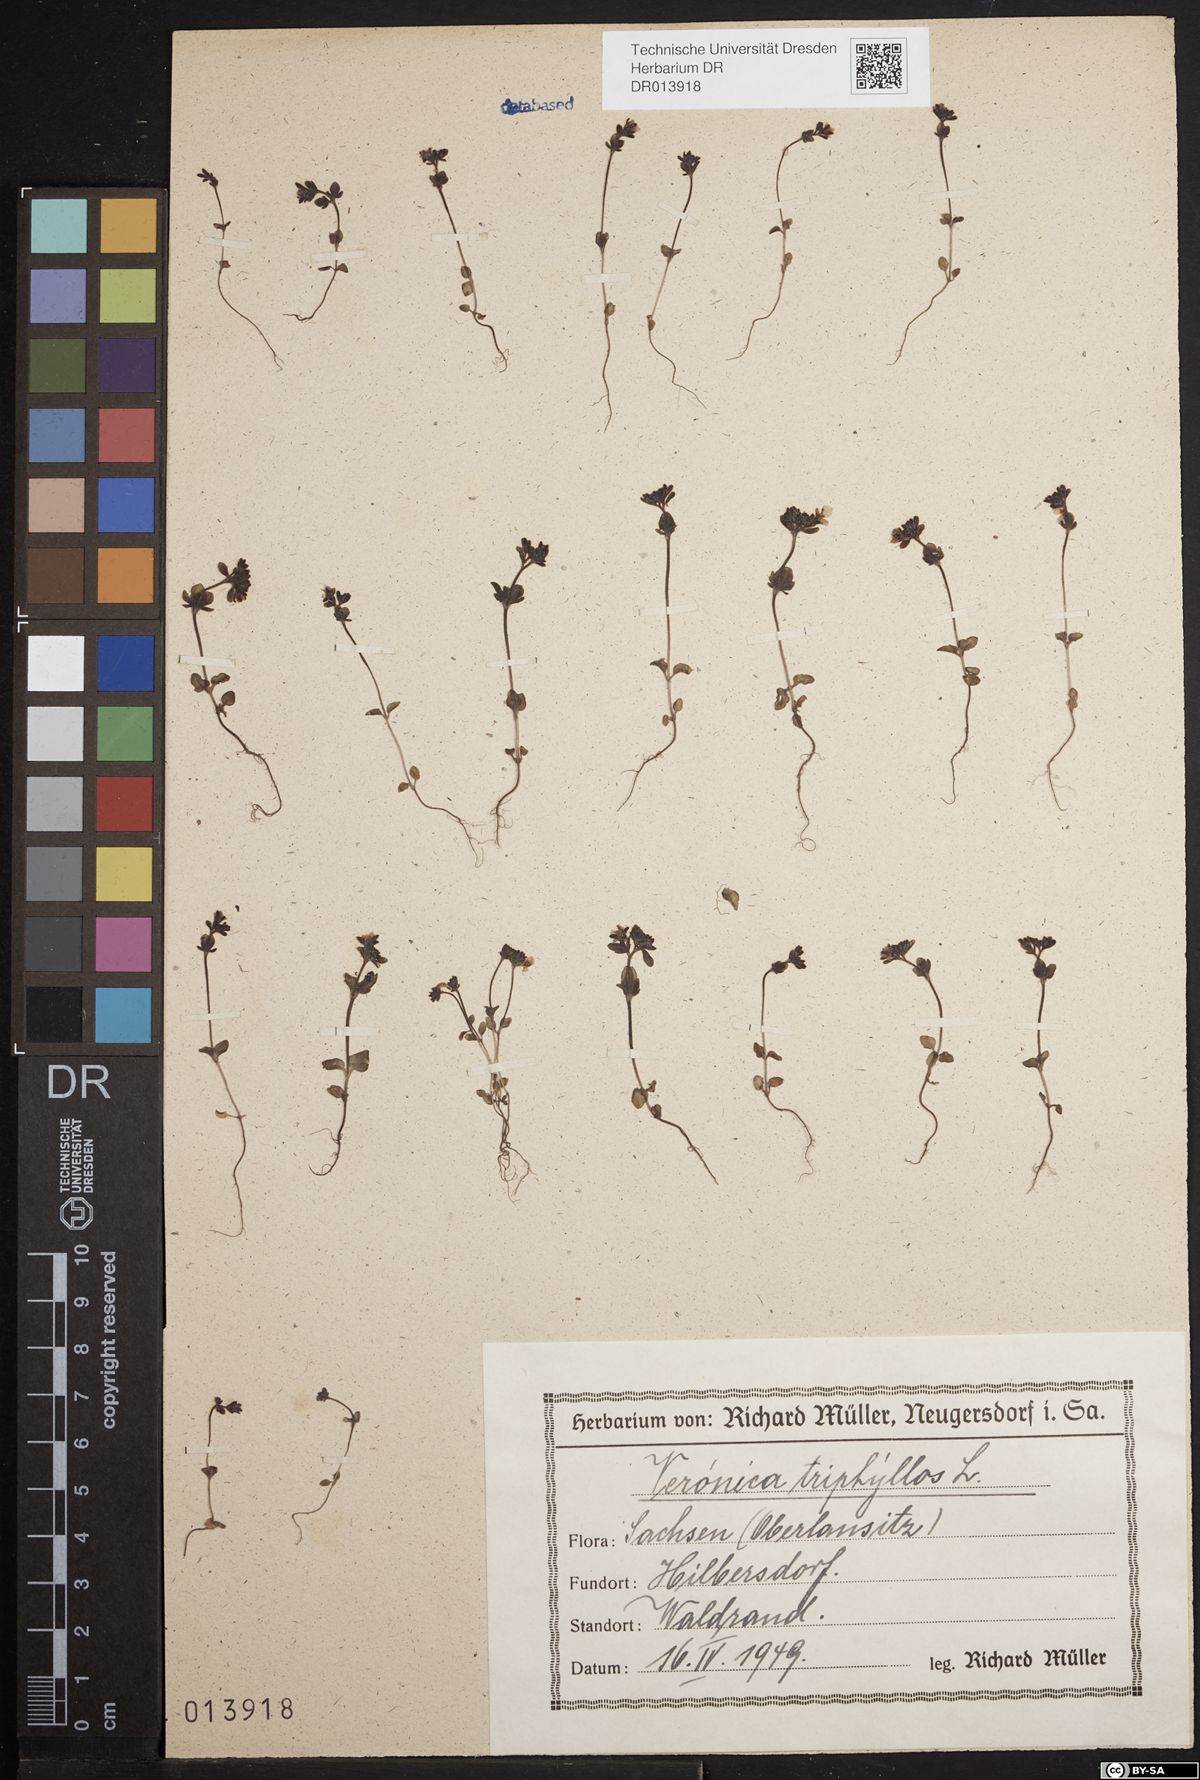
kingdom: Plantae
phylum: Tracheophyta
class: Magnoliopsida
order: Lamiales
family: Plantaginaceae
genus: Veronica
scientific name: Veronica triphyllos
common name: Fingered speedwell
